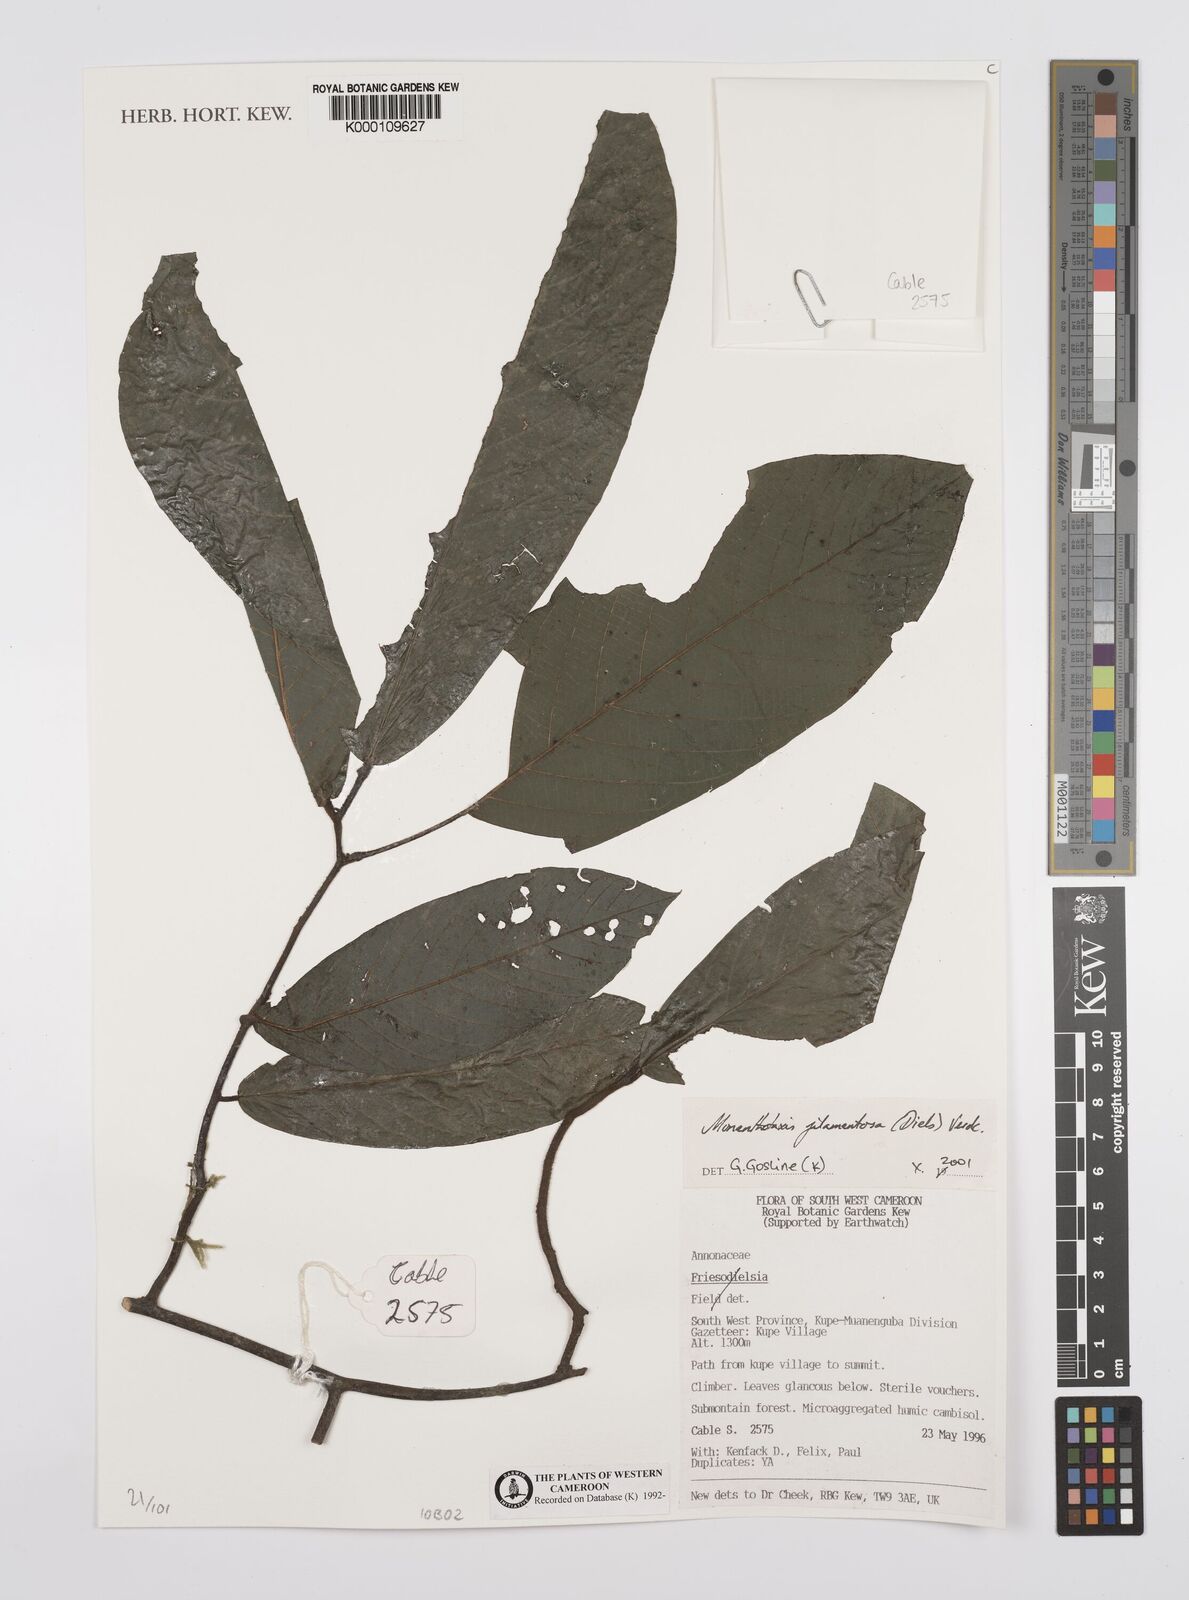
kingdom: Plantae
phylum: Tracheophyta
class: Magnoliopsida
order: Magnoliales
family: Annonaceae
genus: Monanthotaxis
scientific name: Monanthotaxis filamentosa
